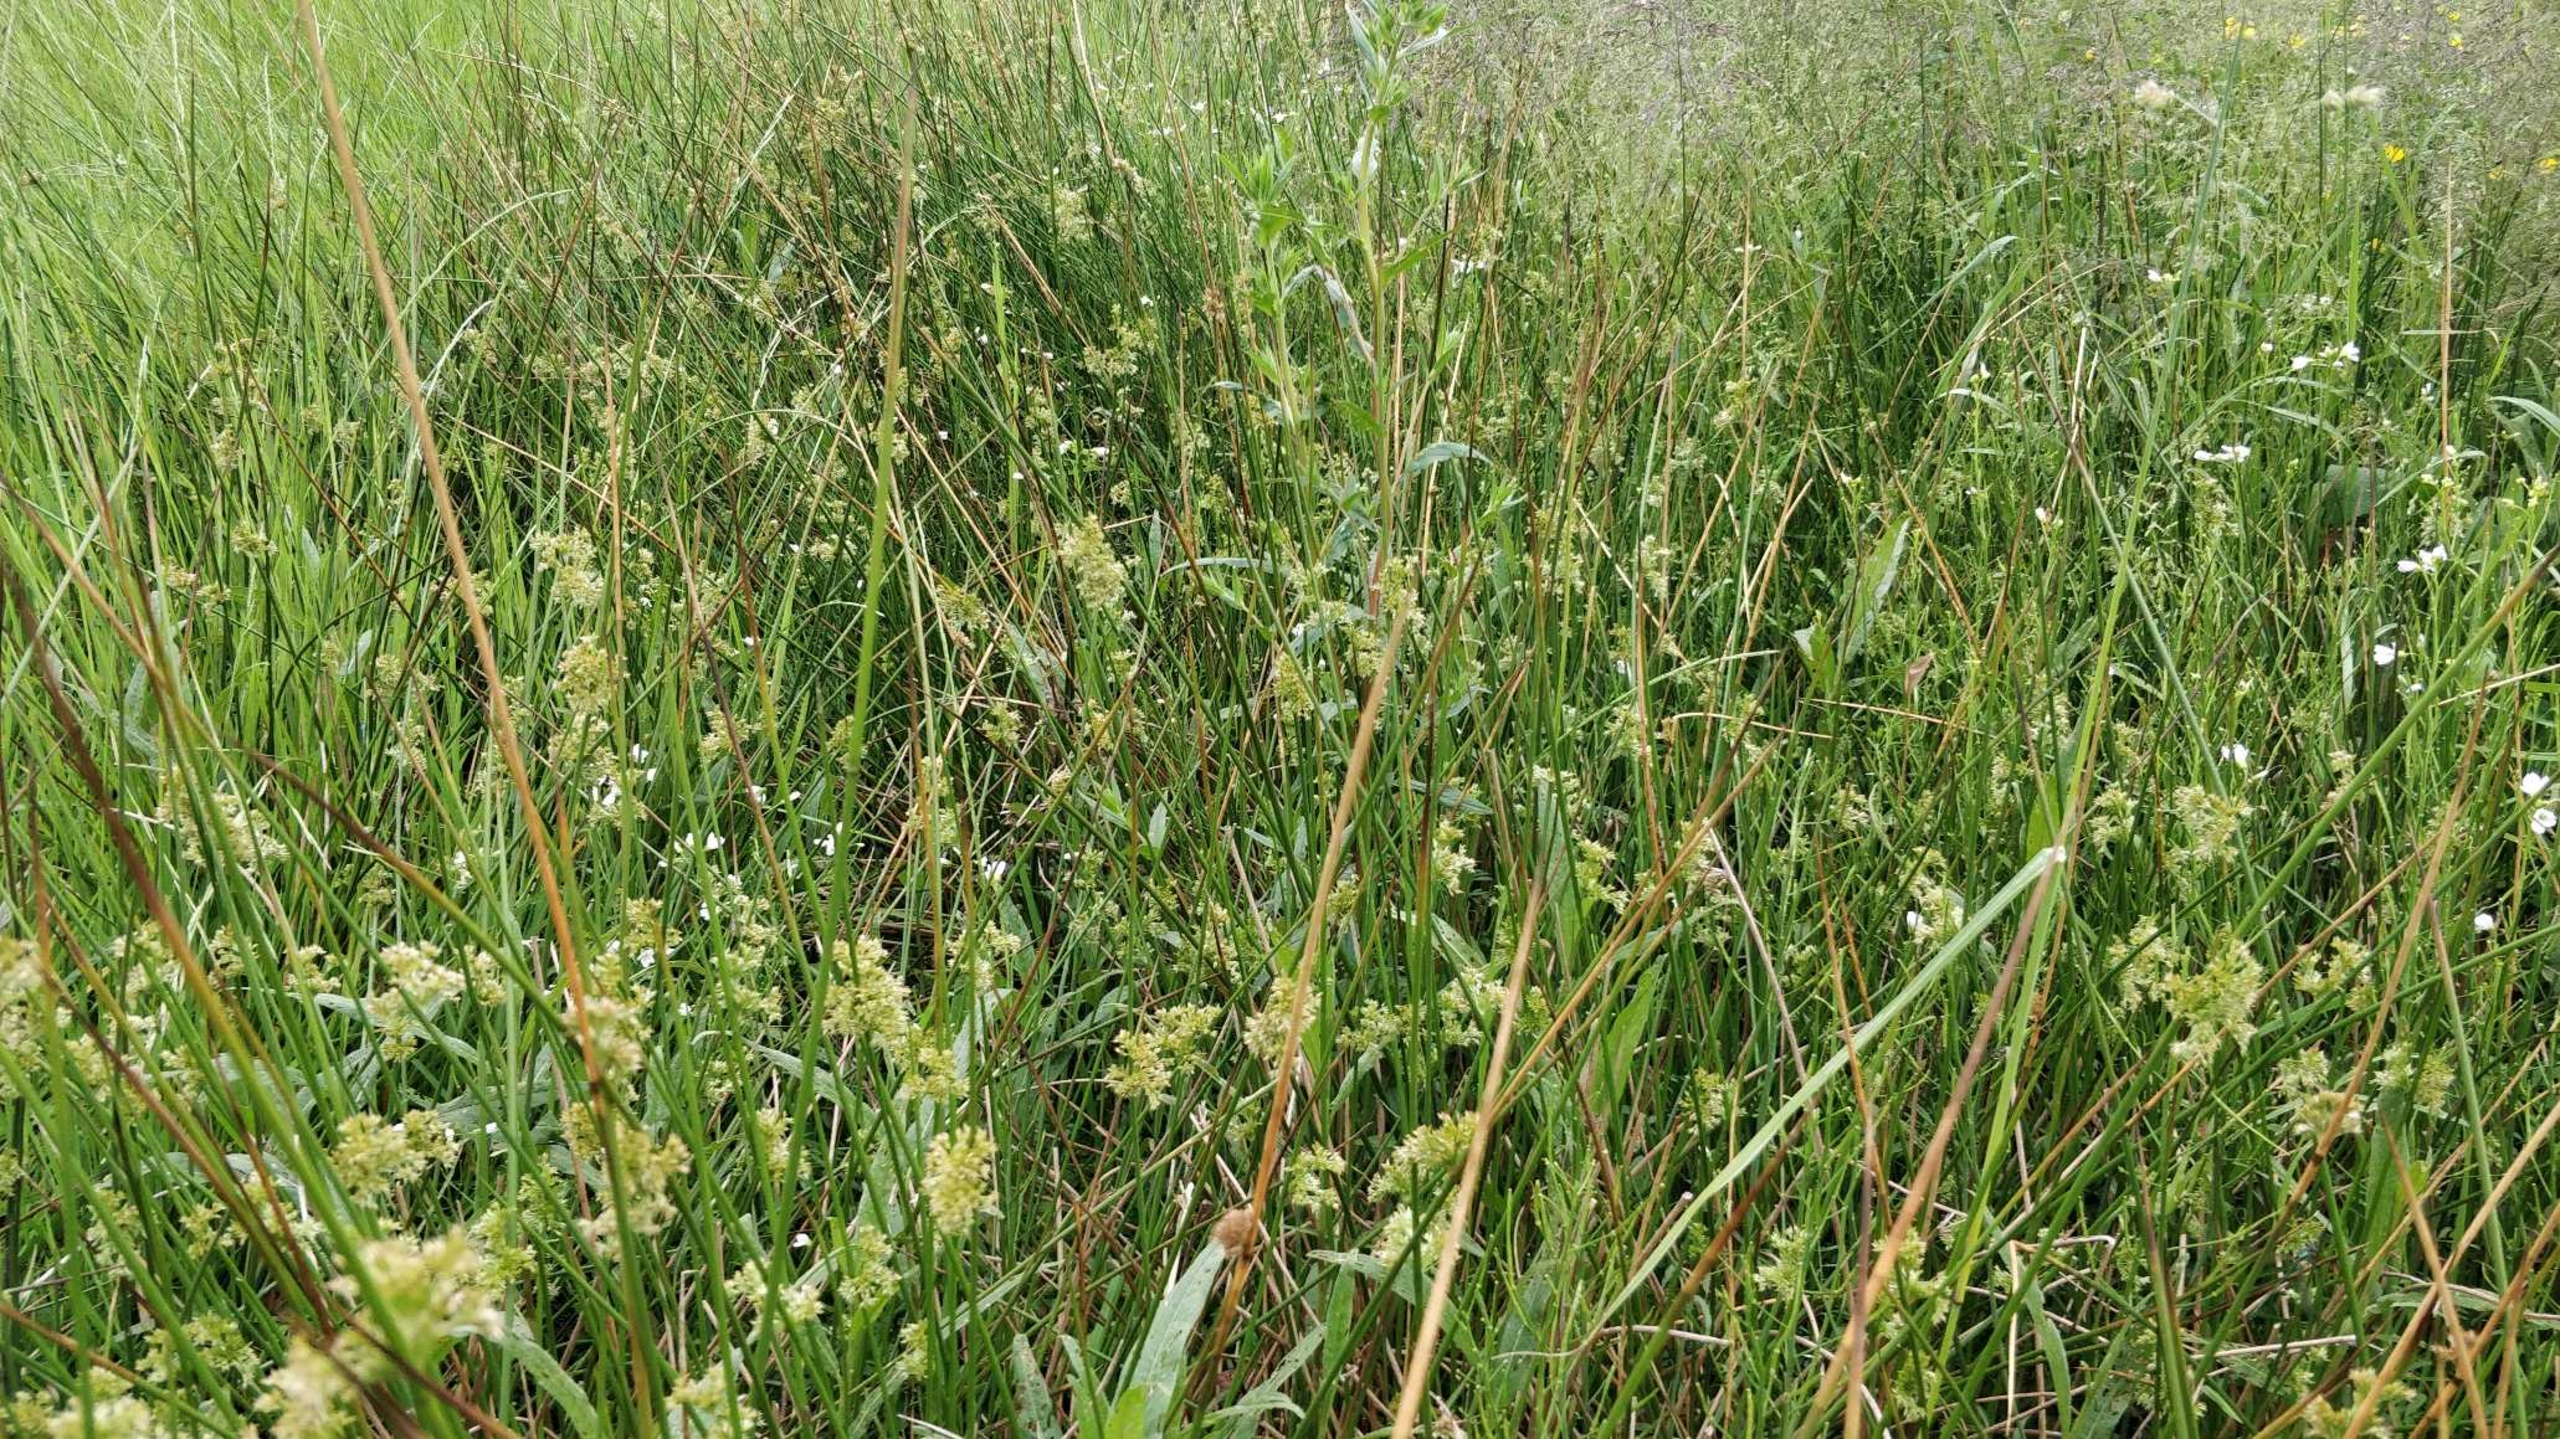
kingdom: Plantae
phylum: Tracheophyta
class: Magnoliopsida
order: Brassicales
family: Brassicaceae
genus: Cardamine
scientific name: Cardamine pratensis
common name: Engkarse
